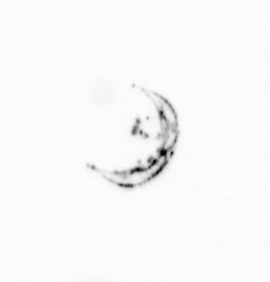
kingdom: Chromista
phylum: Ochrophyta
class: Bacillariophyceae
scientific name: Bacillariophyceae
